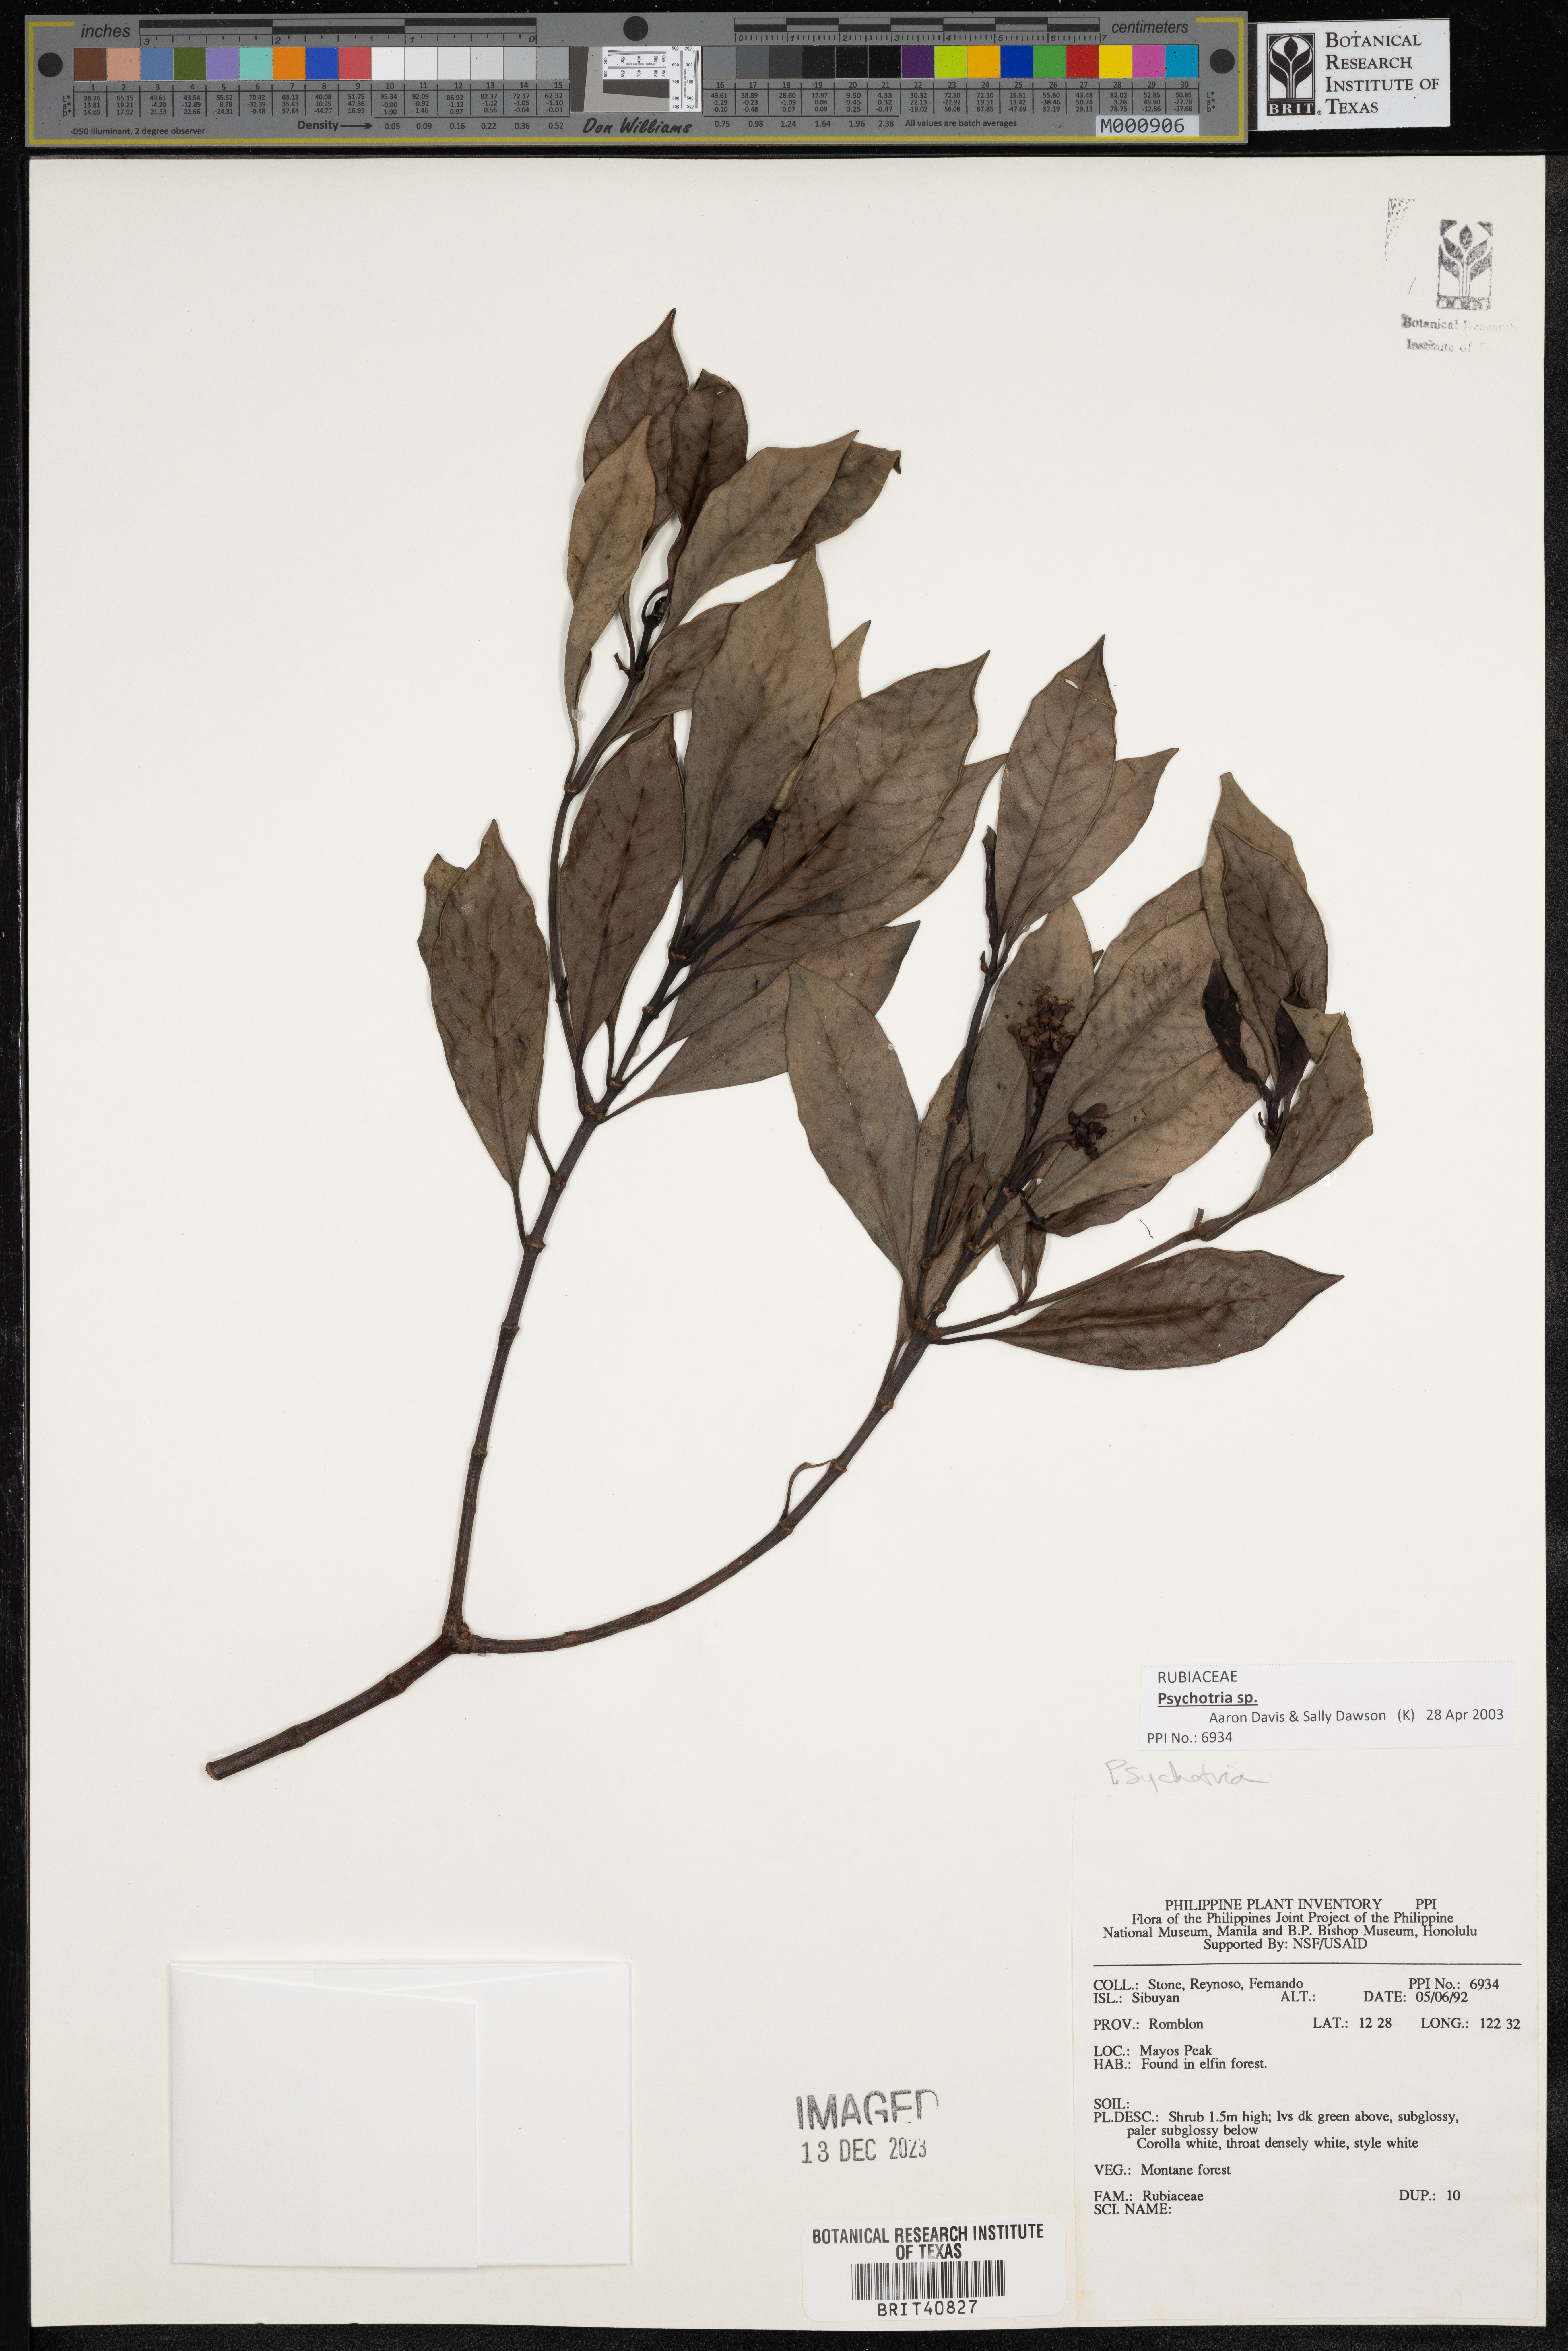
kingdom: Plantae
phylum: Tracheophyta
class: Magnoliopsida
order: Gentianales
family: Rubiaceae
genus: Psychotria
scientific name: Psychotria
